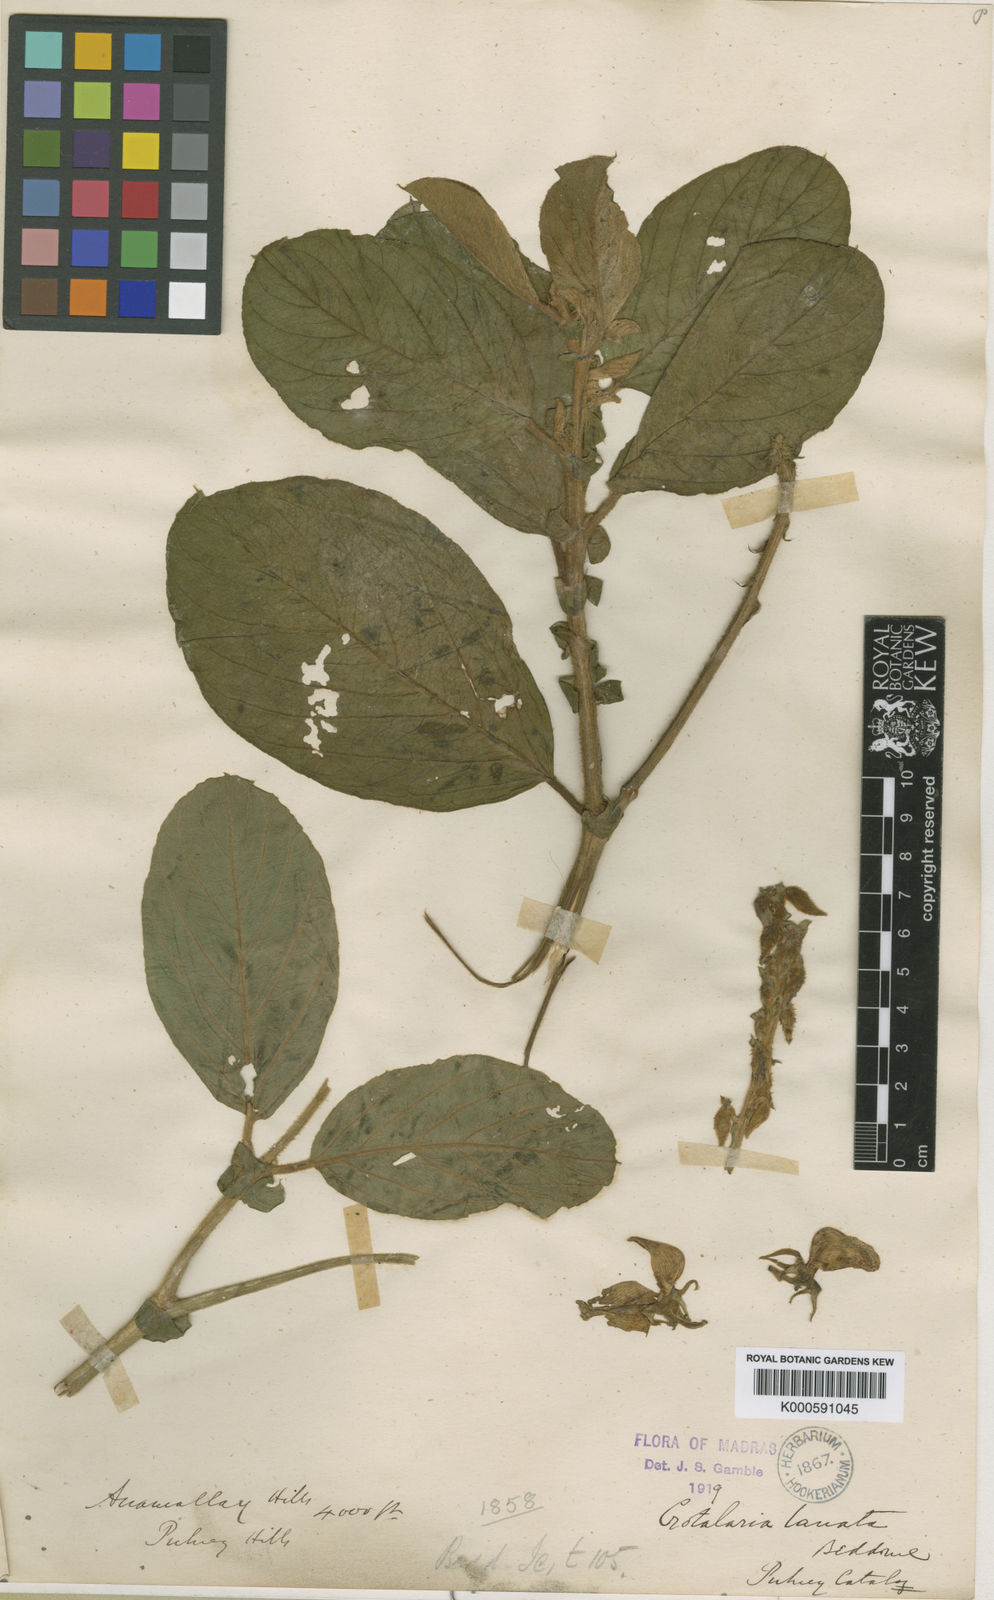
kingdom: Plantae
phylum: Tracheophyta
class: Magnoliopsida
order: Fabales
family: Fabaceae
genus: Crotalaria
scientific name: Crotalaria beddomeana
